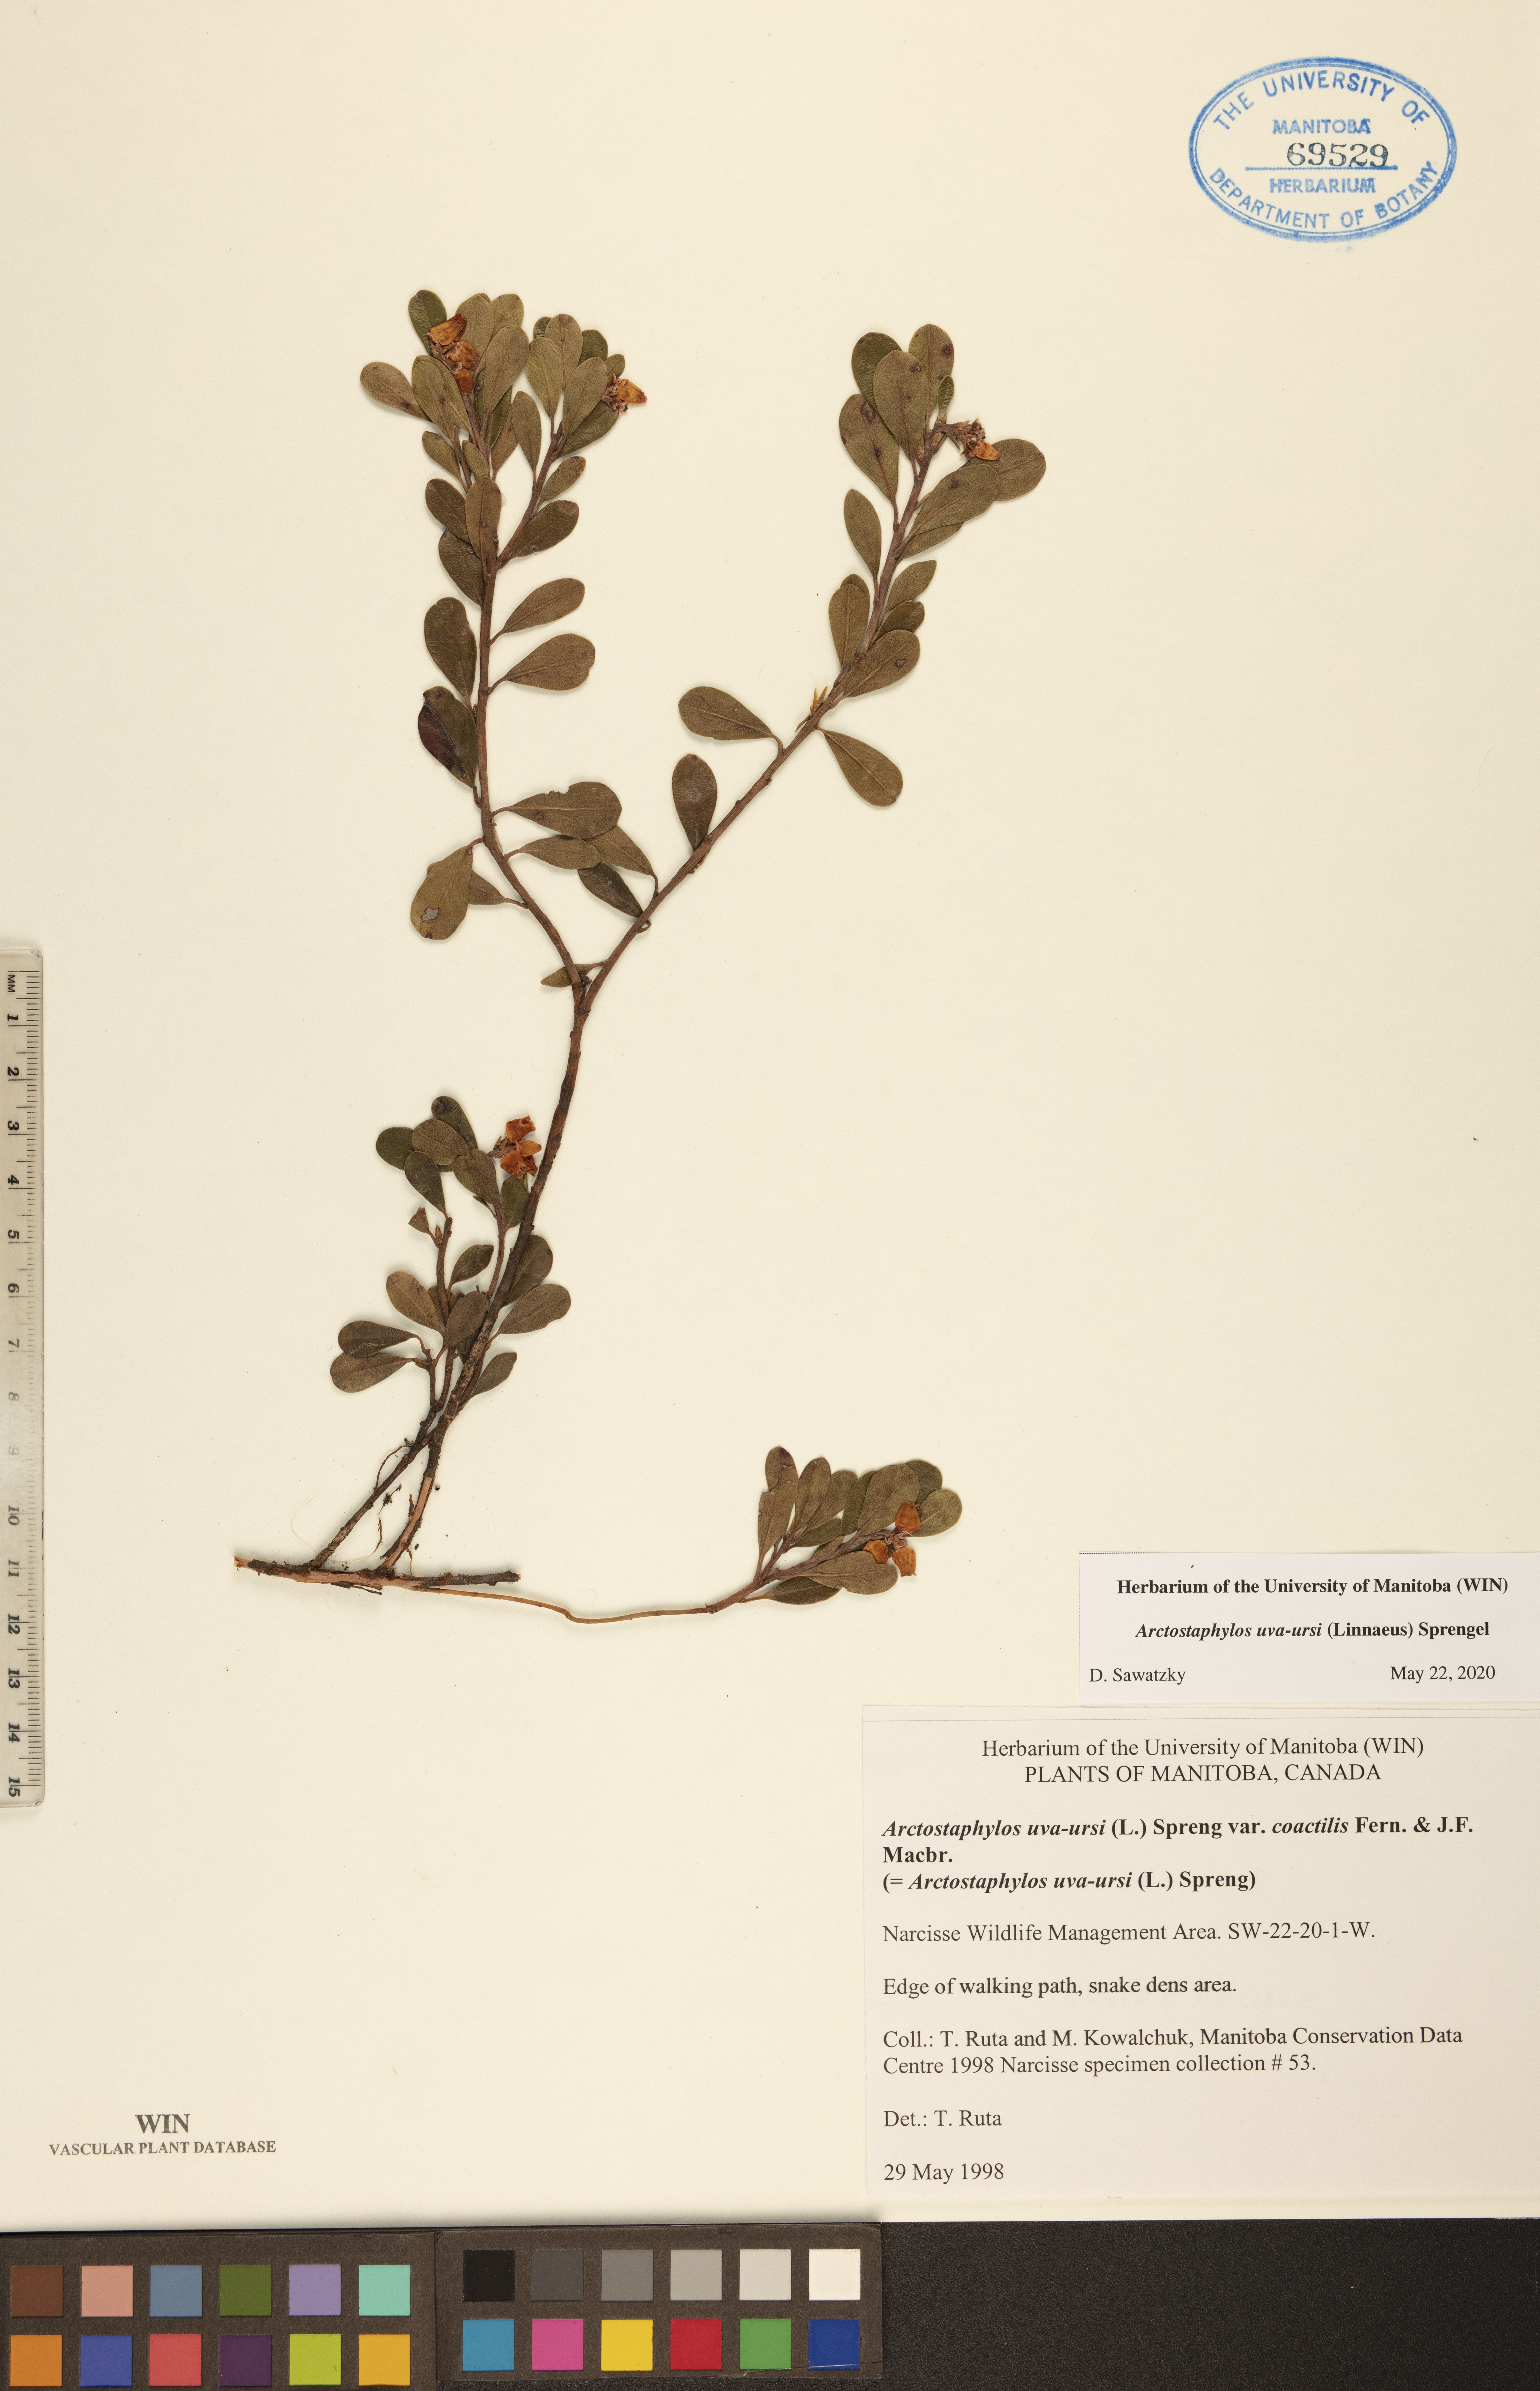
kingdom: Plantae
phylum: Tracheophyta
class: Magnoliopsida
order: Ericales
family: Ericaceae
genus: Arctostaphylos
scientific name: Arctostaphylos uva-ursi
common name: Bearberry
